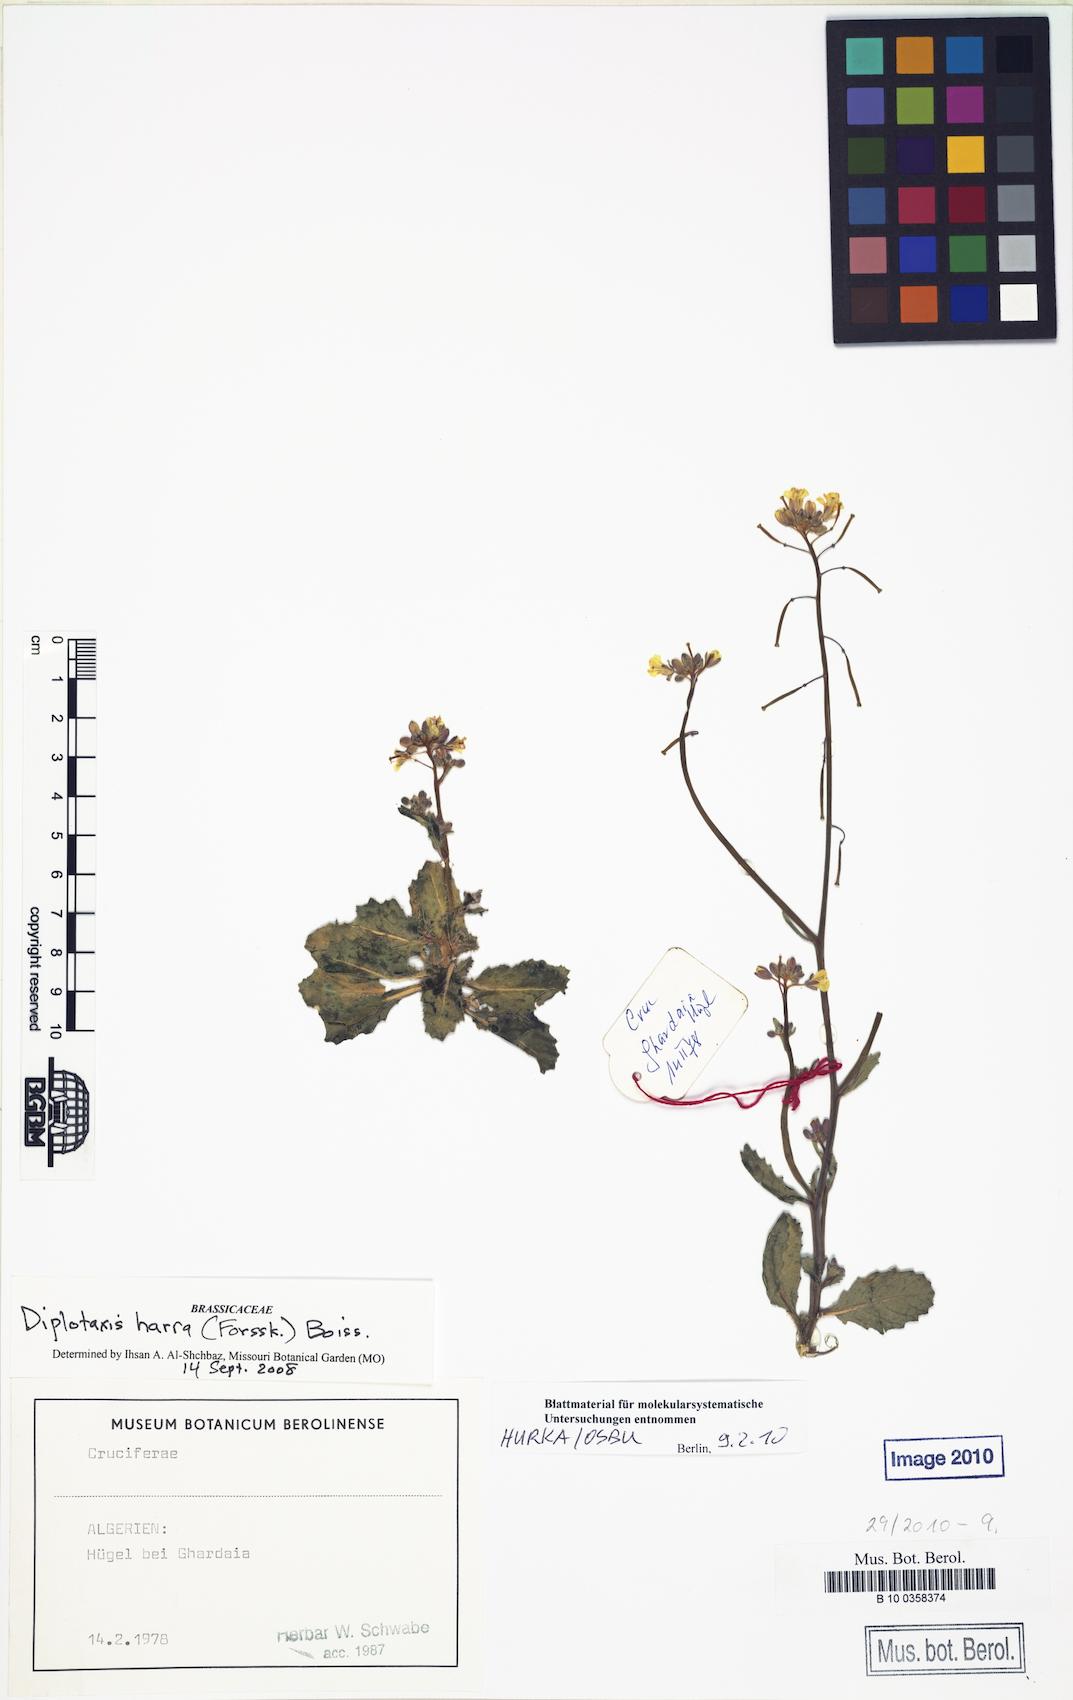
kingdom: Plantae
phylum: Tracheophyta
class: Magnoliopsida
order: Brassicales
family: Brassicaceae
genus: Diplotaxis
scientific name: Diplotaxis harra
